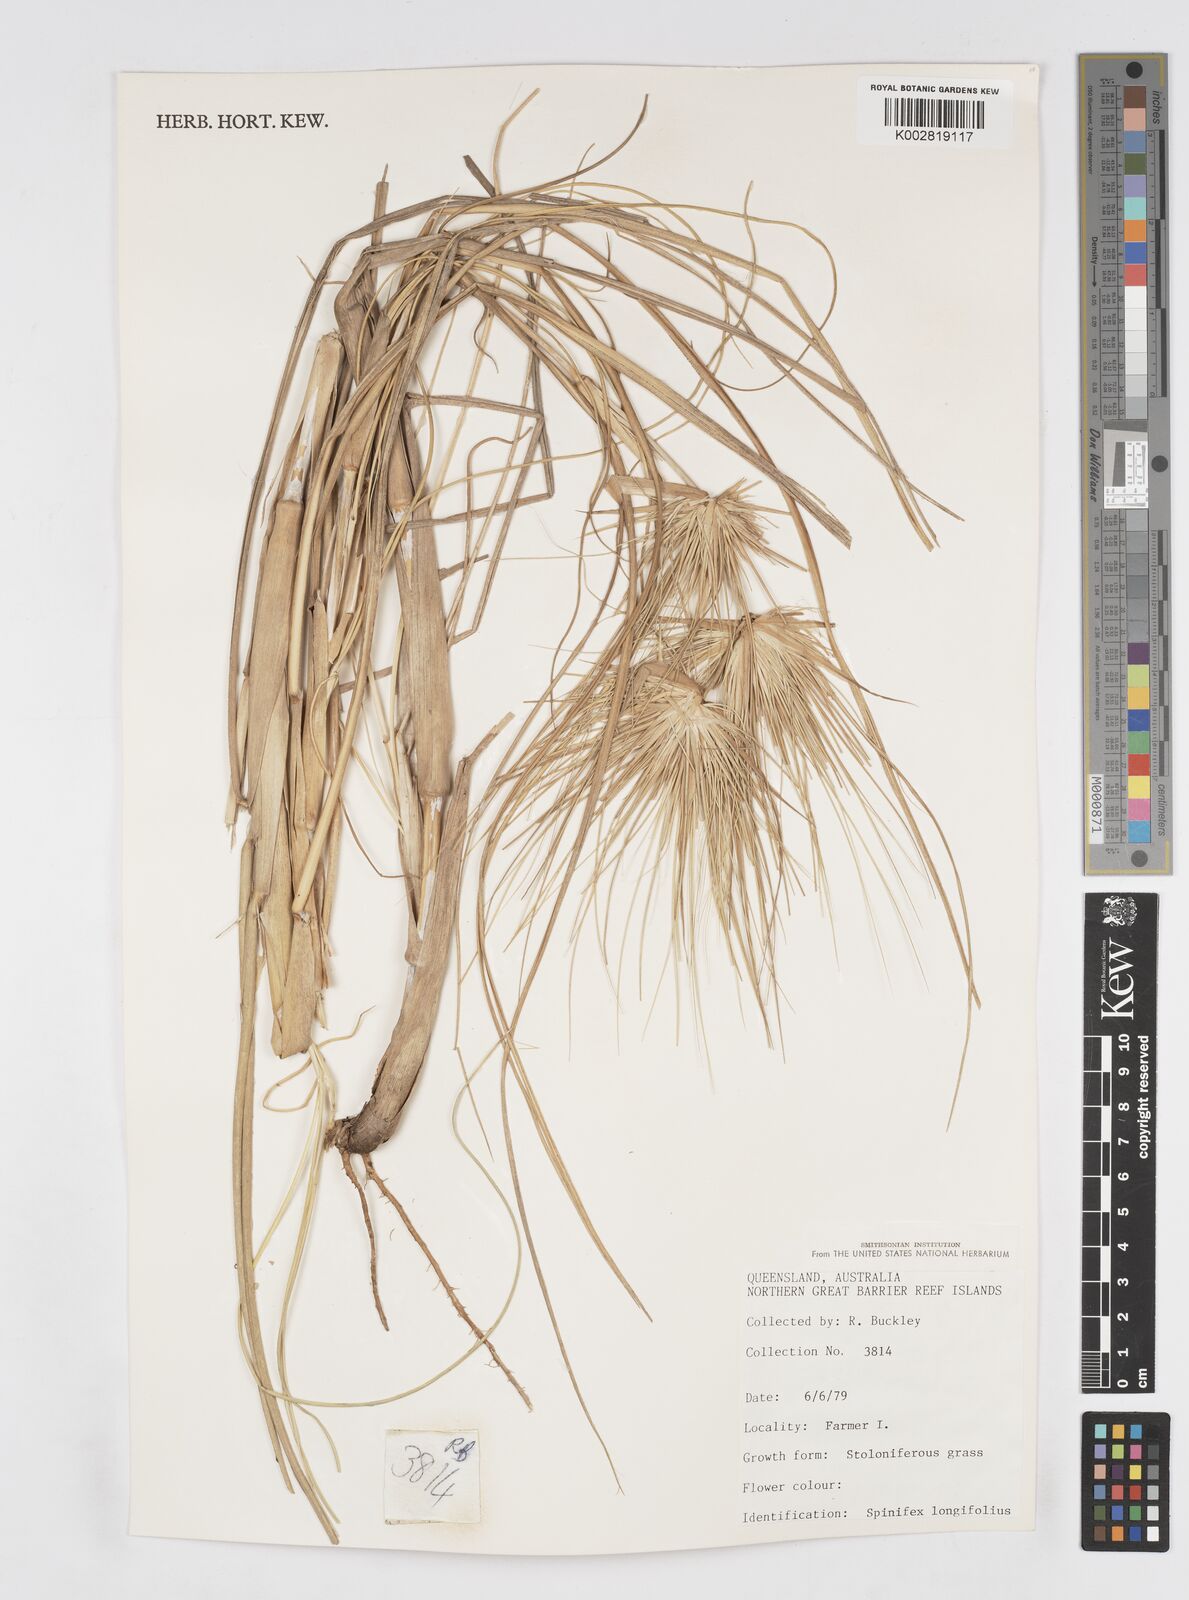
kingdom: Plantae
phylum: Tracheophyta
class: Liliopsida
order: Poales
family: Poaceae
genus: Spinifex
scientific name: Spinifex longifolius
